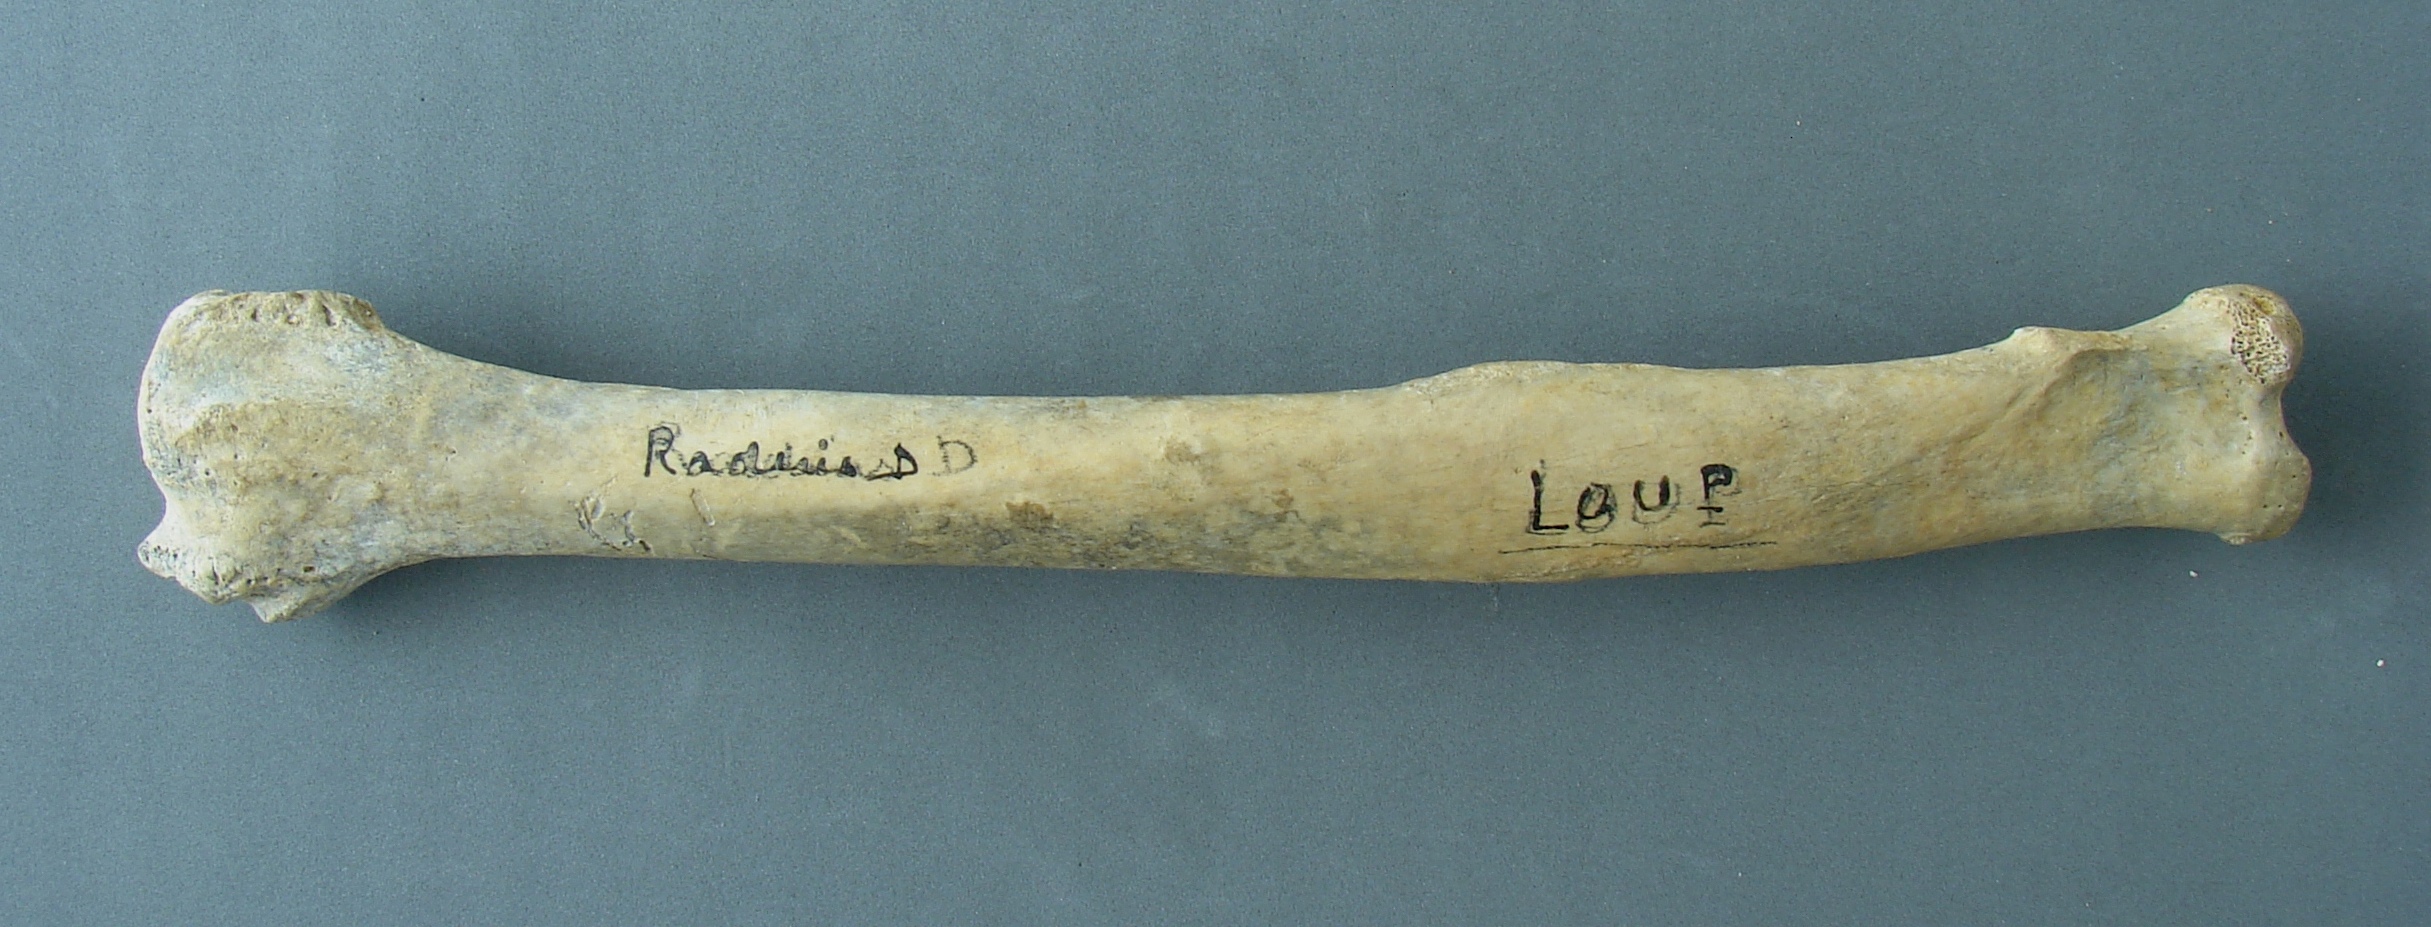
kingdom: Animalia
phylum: Chordata
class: Mammalia
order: Carnivora
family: Canidae
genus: Canis
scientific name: Canis lupus
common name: Gray wolf
